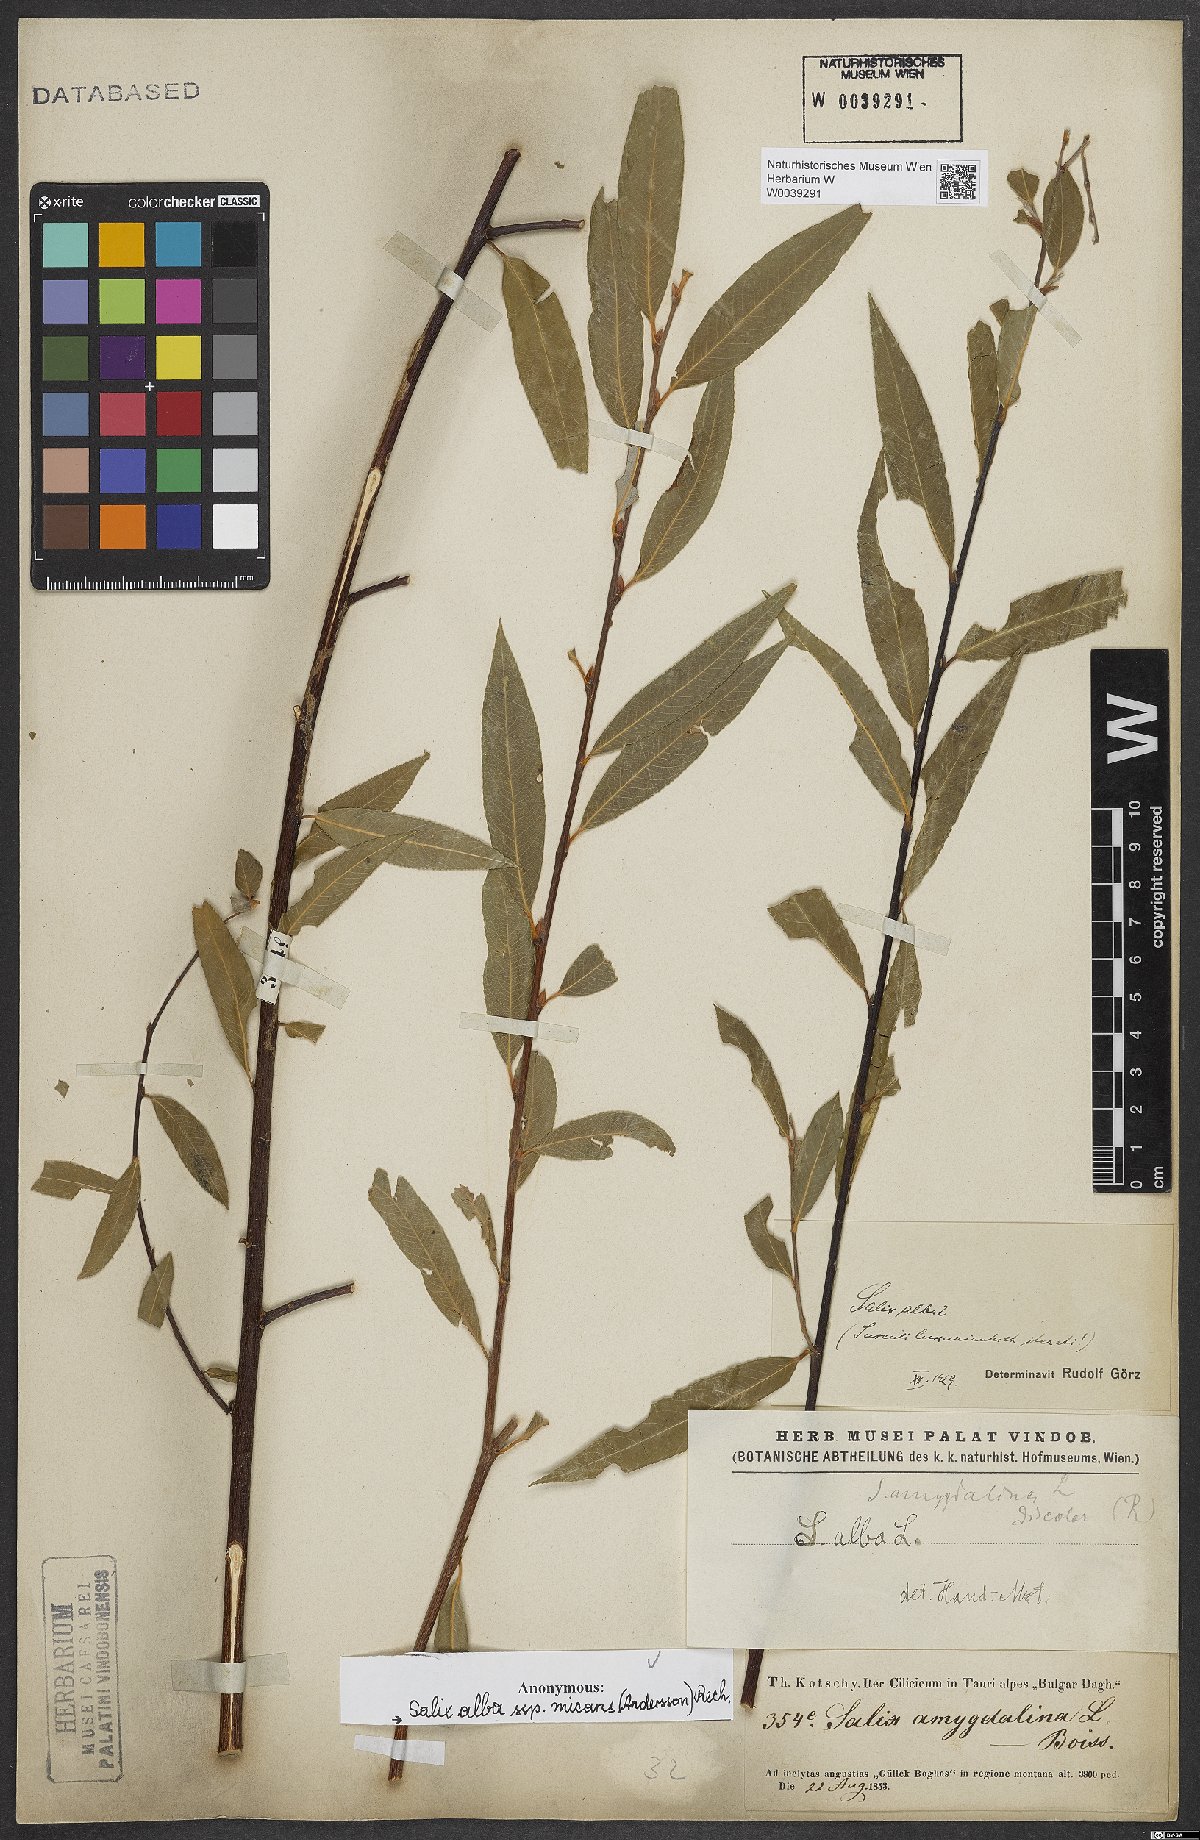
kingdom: Plantae
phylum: Tracheophyta
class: Magnoliopsida
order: Malpighiales
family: Salicaceae
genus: Salix
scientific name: Salix alba
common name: White willow
